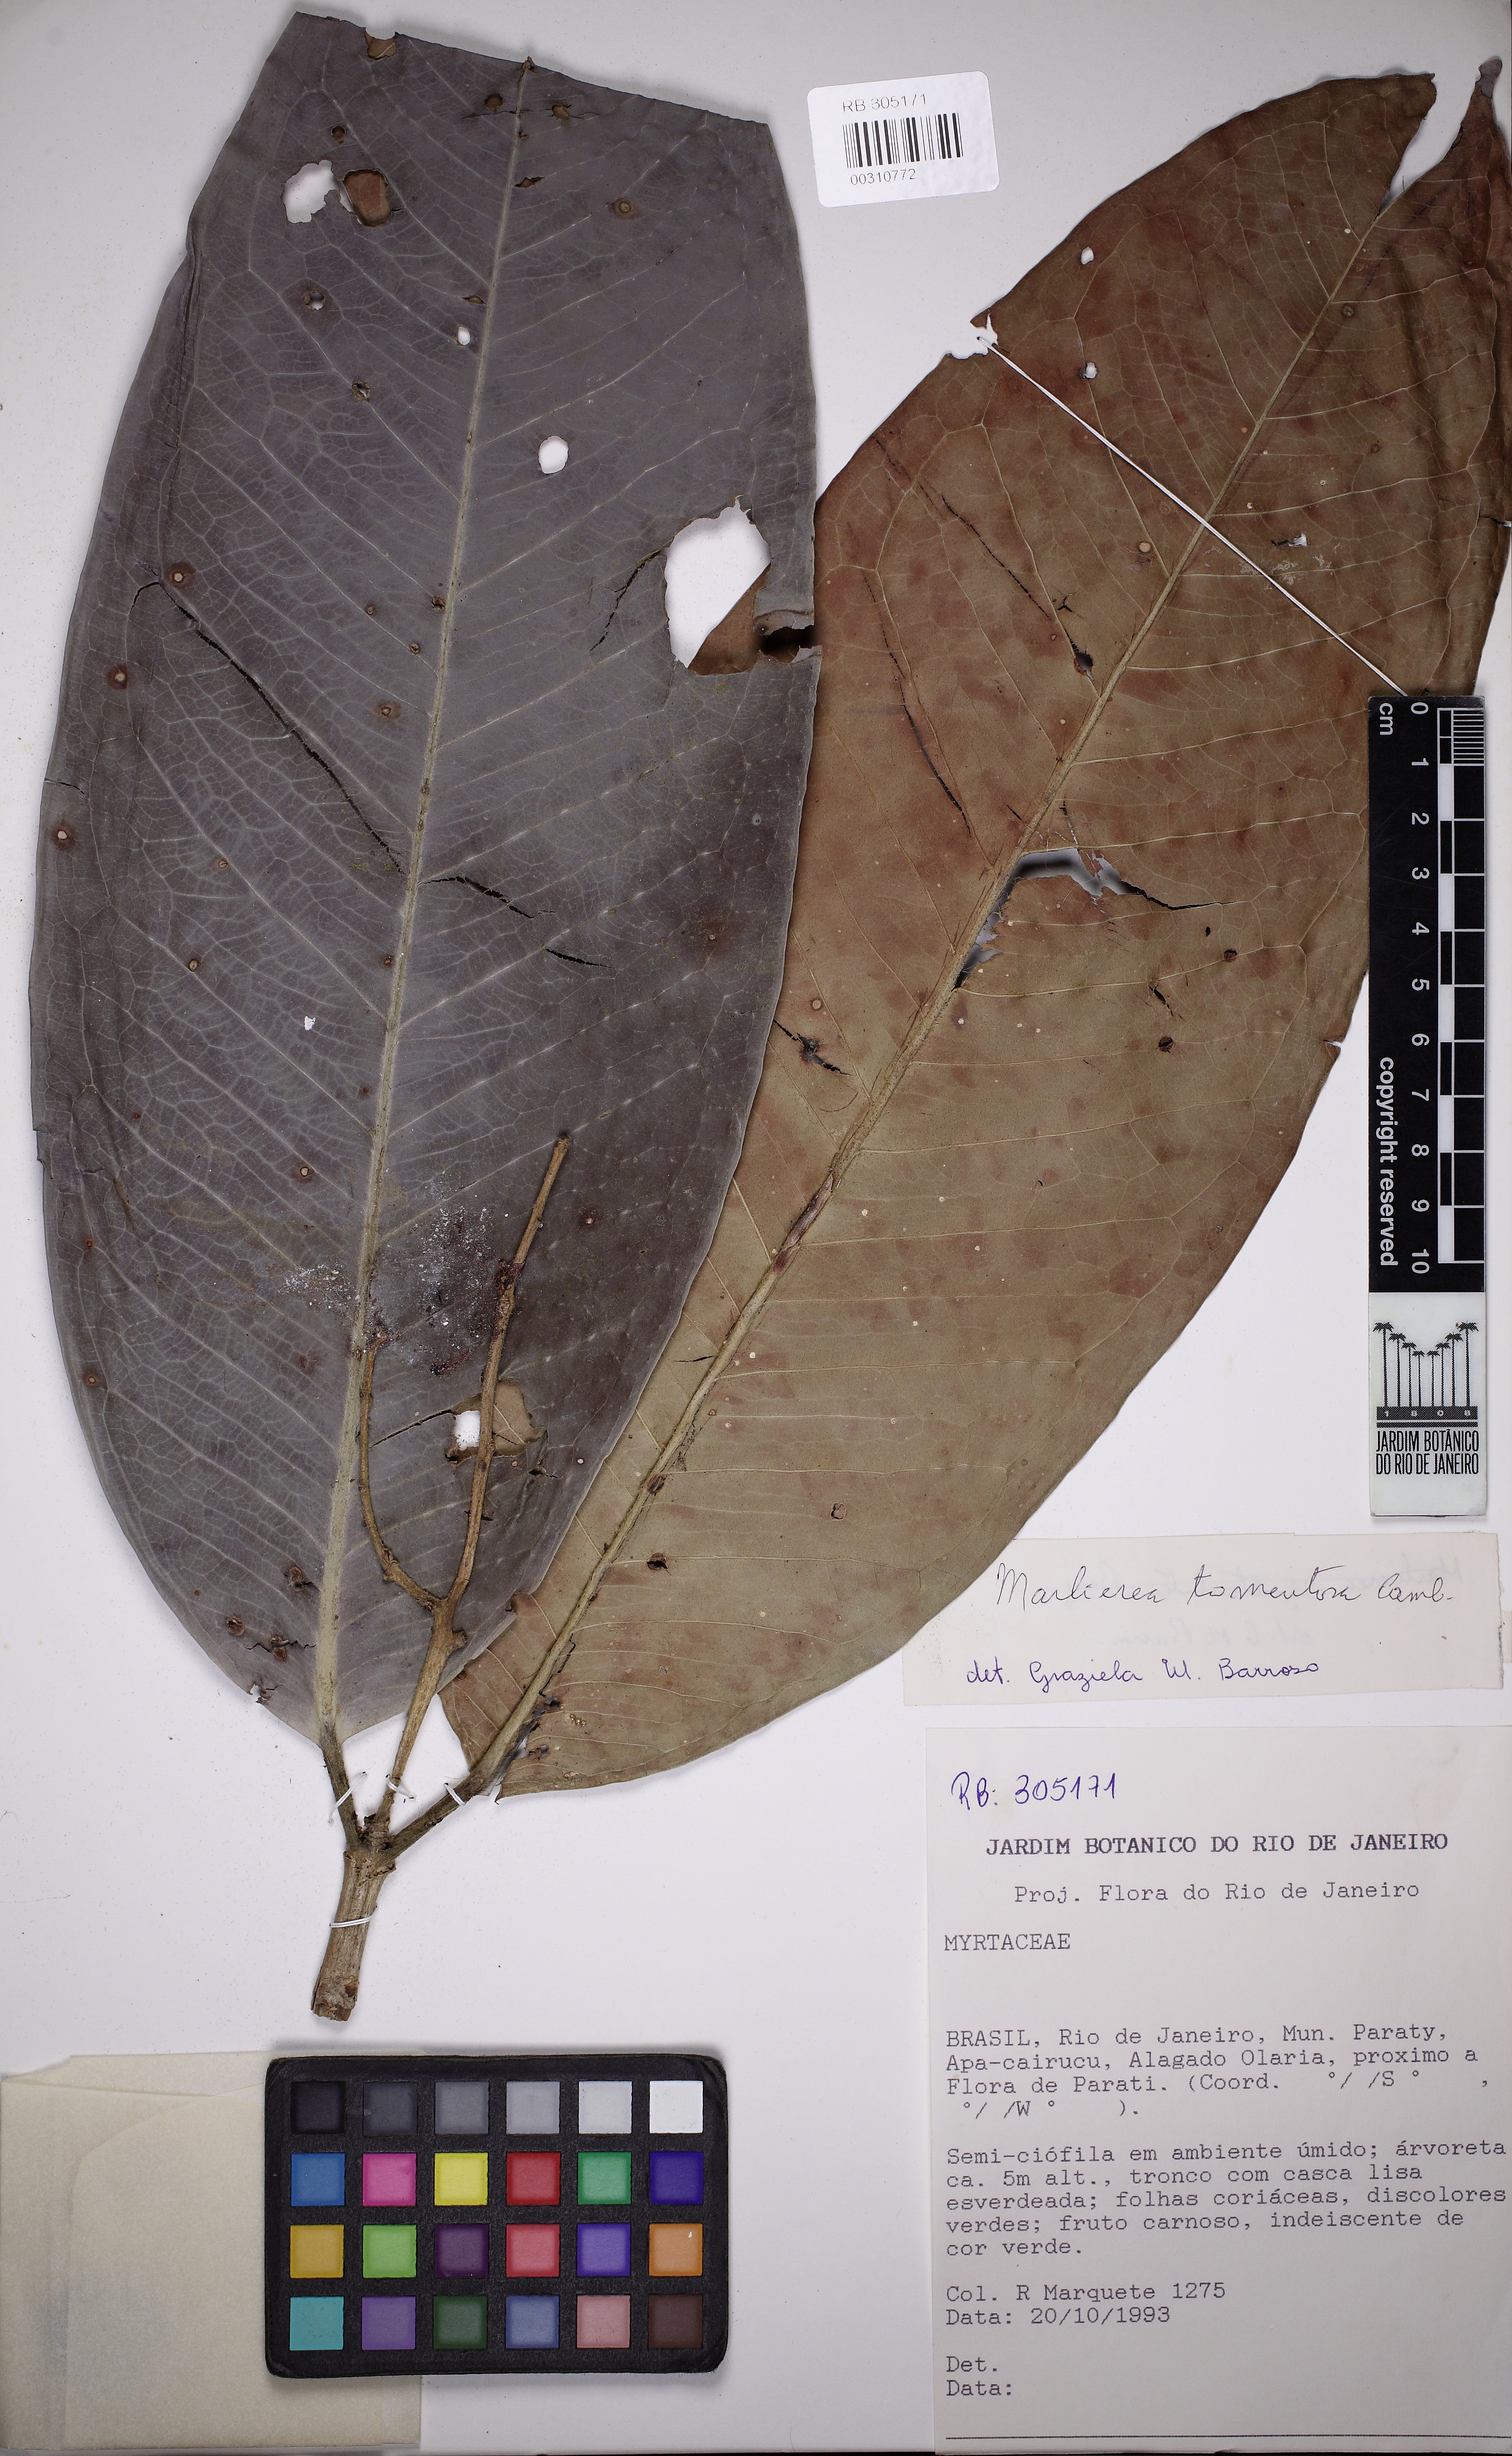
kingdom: Plantae
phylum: Tracheophyta
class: Magnoliopsida
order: Myrtales
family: Myrtaceae
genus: Myrcia
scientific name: Myrcia neotomentosa
